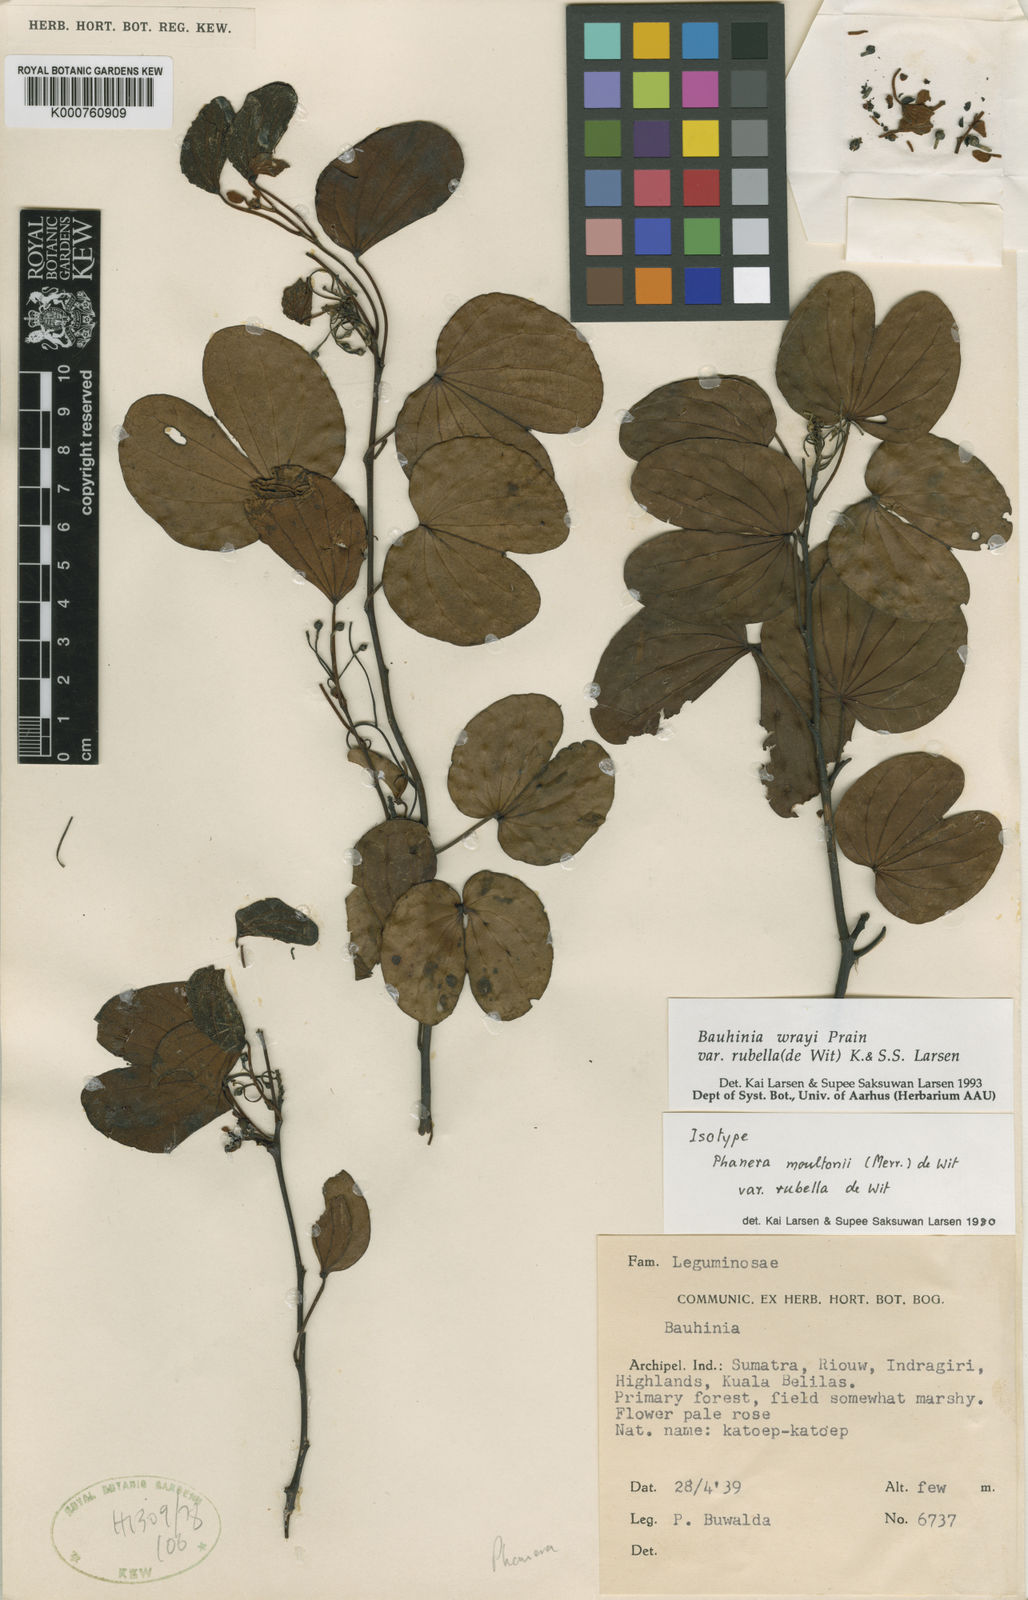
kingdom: Plantae
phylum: Tracheophyta
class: Magnoliopsida
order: Fabales
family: Fabaceae
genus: Phanera
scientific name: Phanera wrayi
